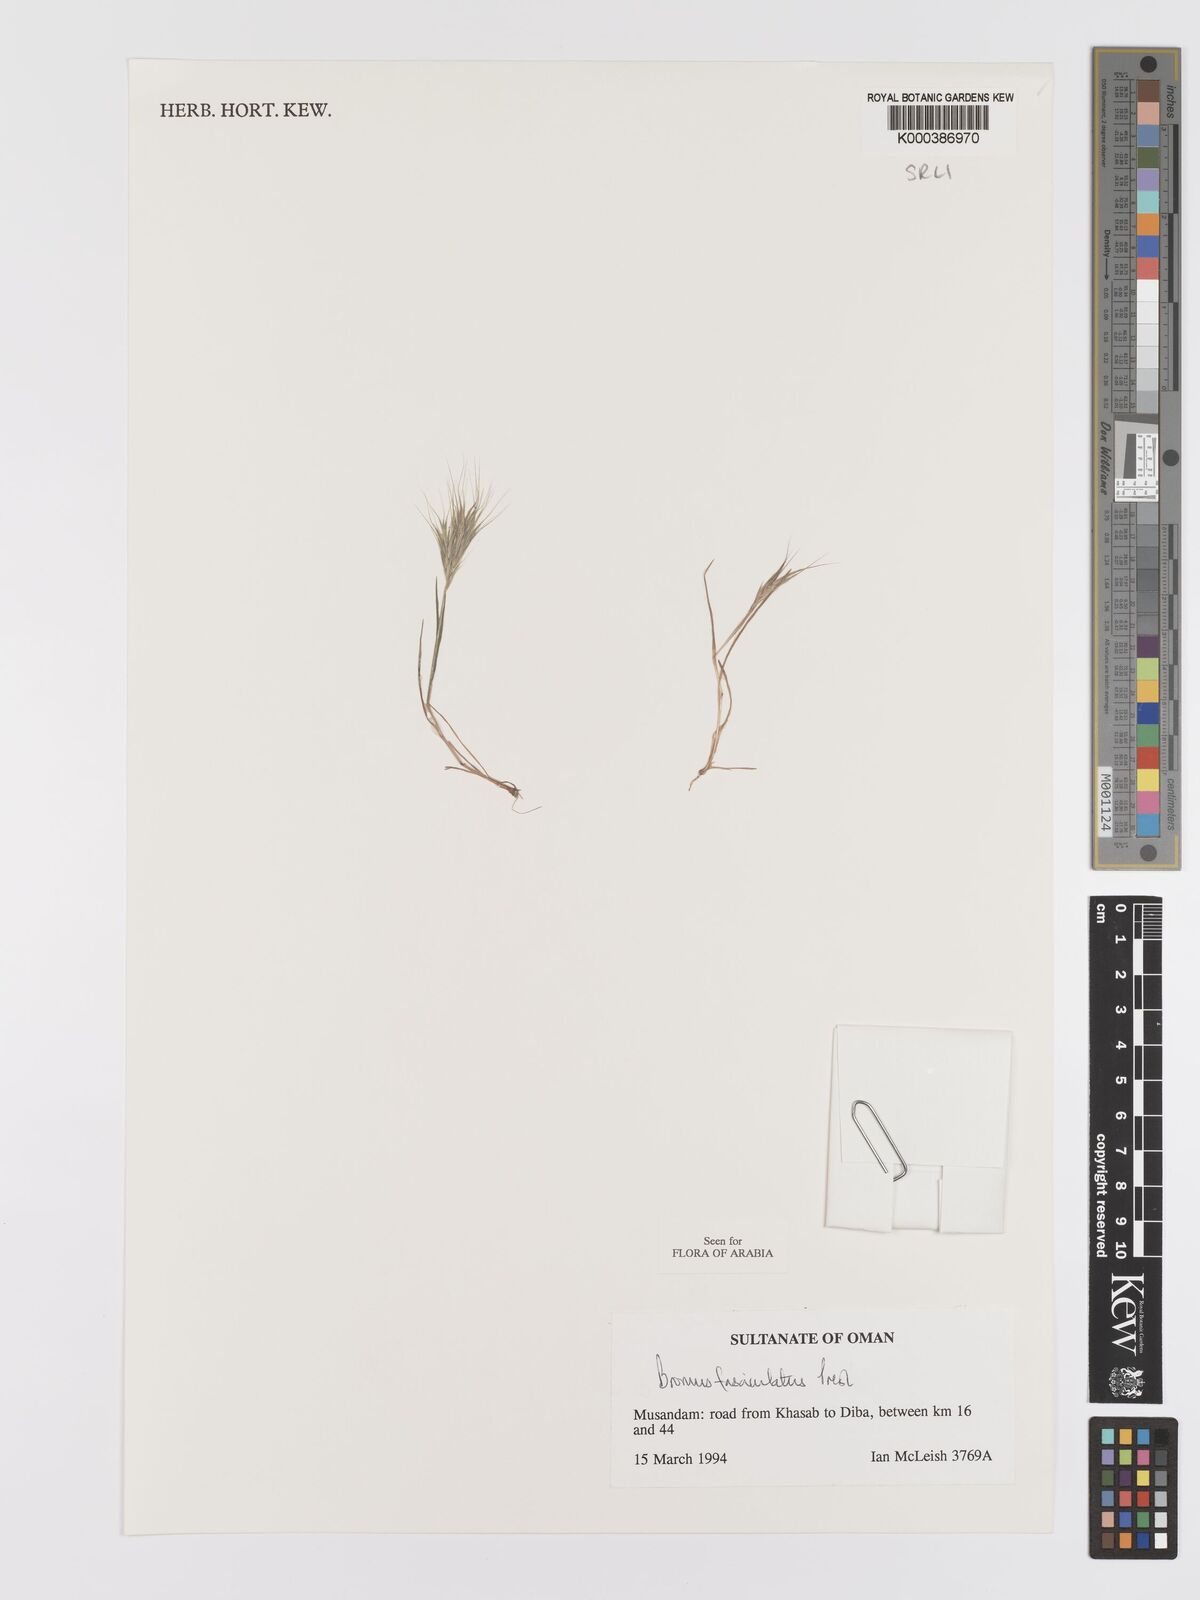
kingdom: Plantae
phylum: Tracheophyta
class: Liliopsida
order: Poales
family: Poaceae
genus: Bromus
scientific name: Bromus fasciculatus
